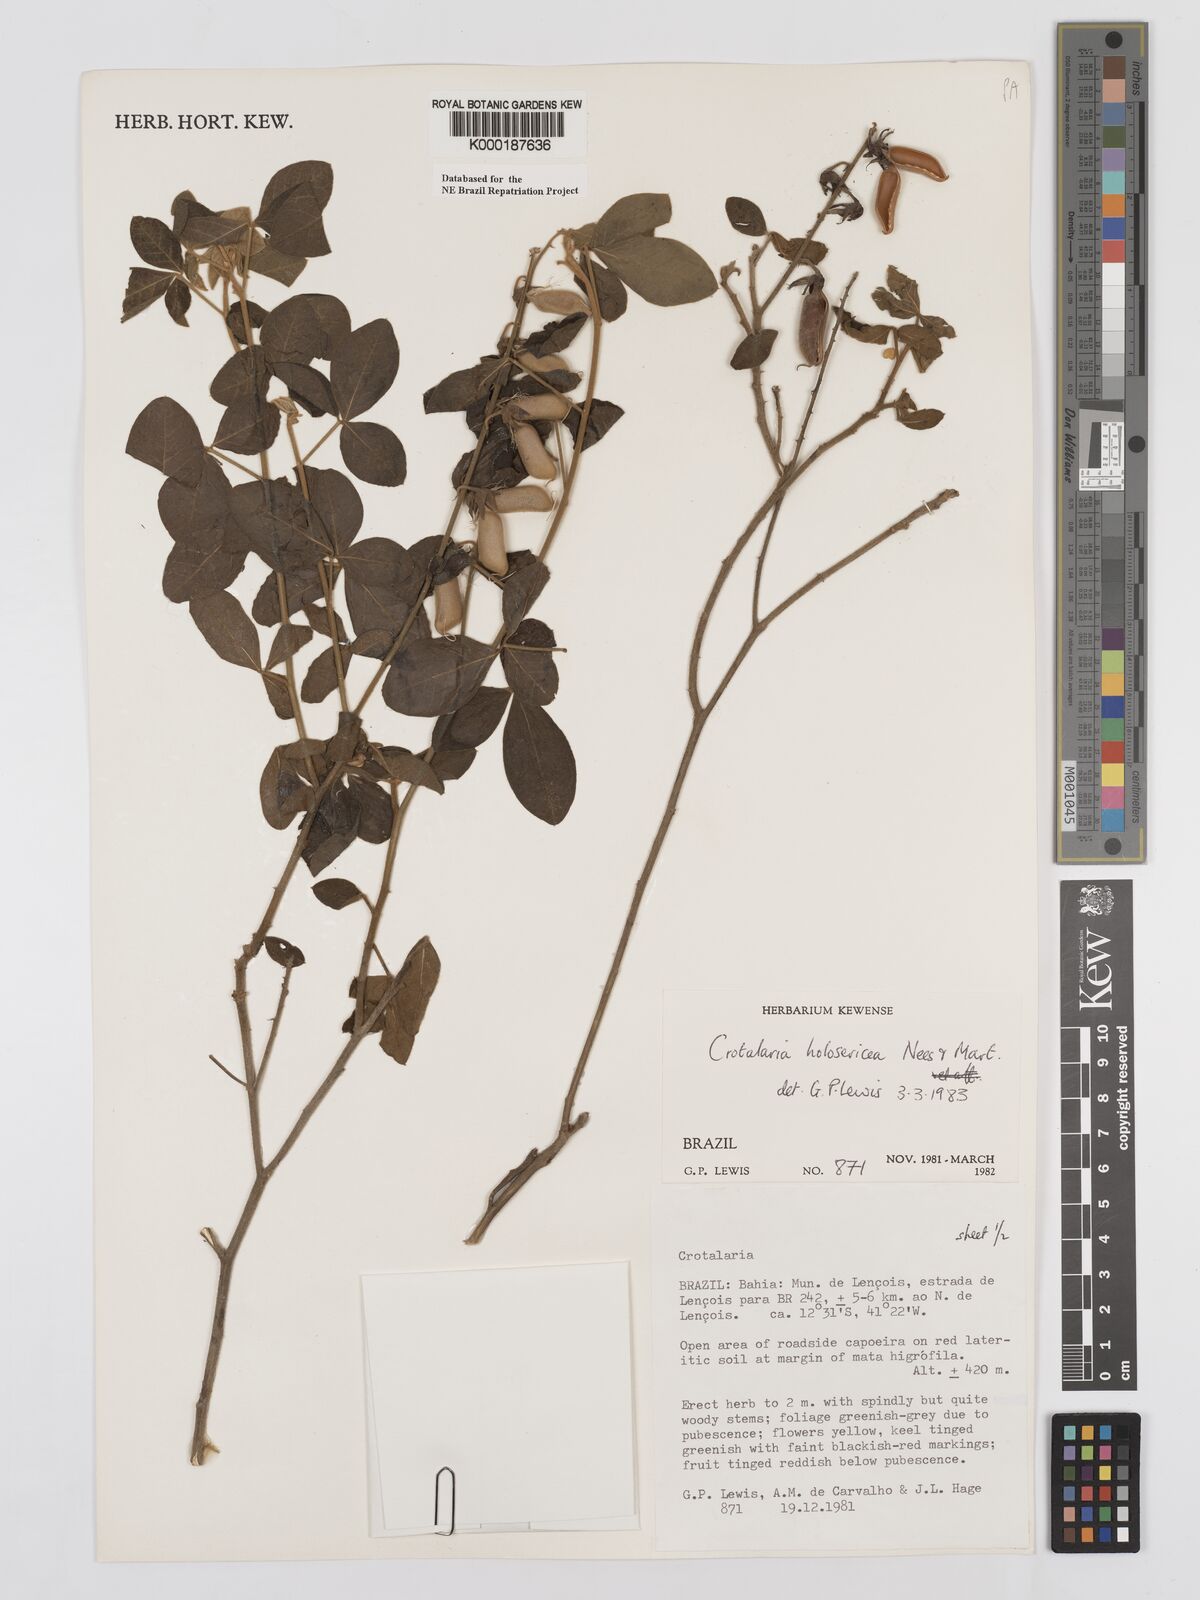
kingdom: Plantae
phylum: Tracheophyta
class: Magnoliopsida
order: Fabales
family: Fabaceae
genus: Crotalaria
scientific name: Crotalaria holosericea
